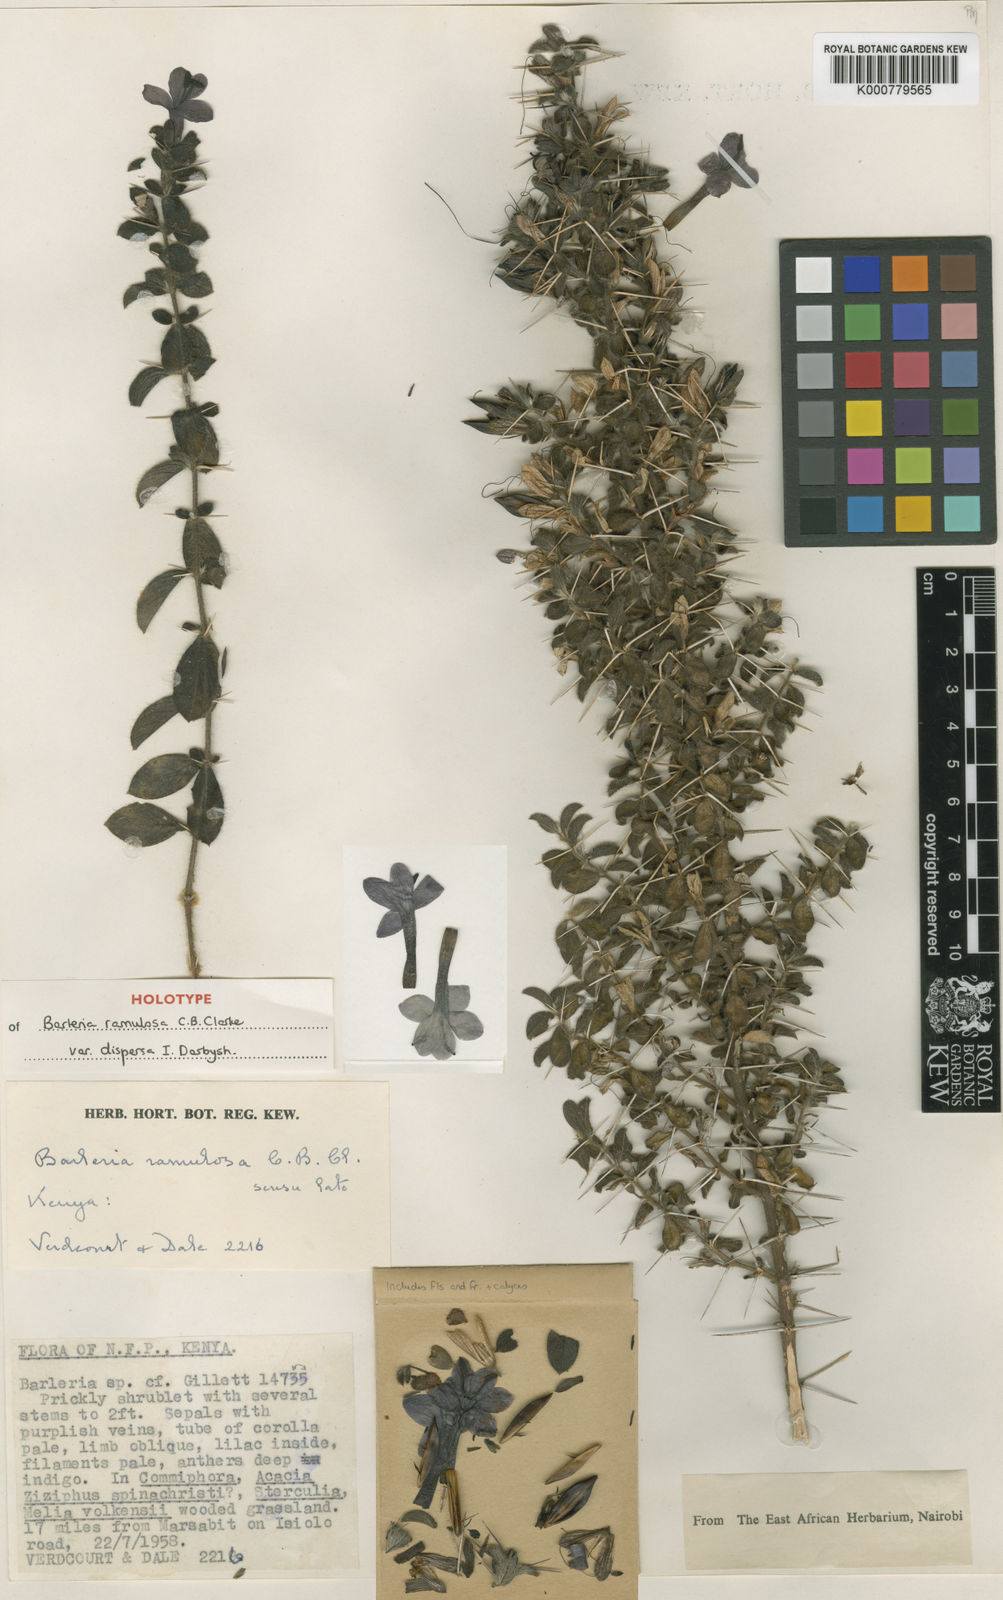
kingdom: Plantae
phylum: Tracheophyta
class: Magnoliopsida
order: Lamiales
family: Acanthaceae
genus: Barleria
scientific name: Barleria ramulosa
